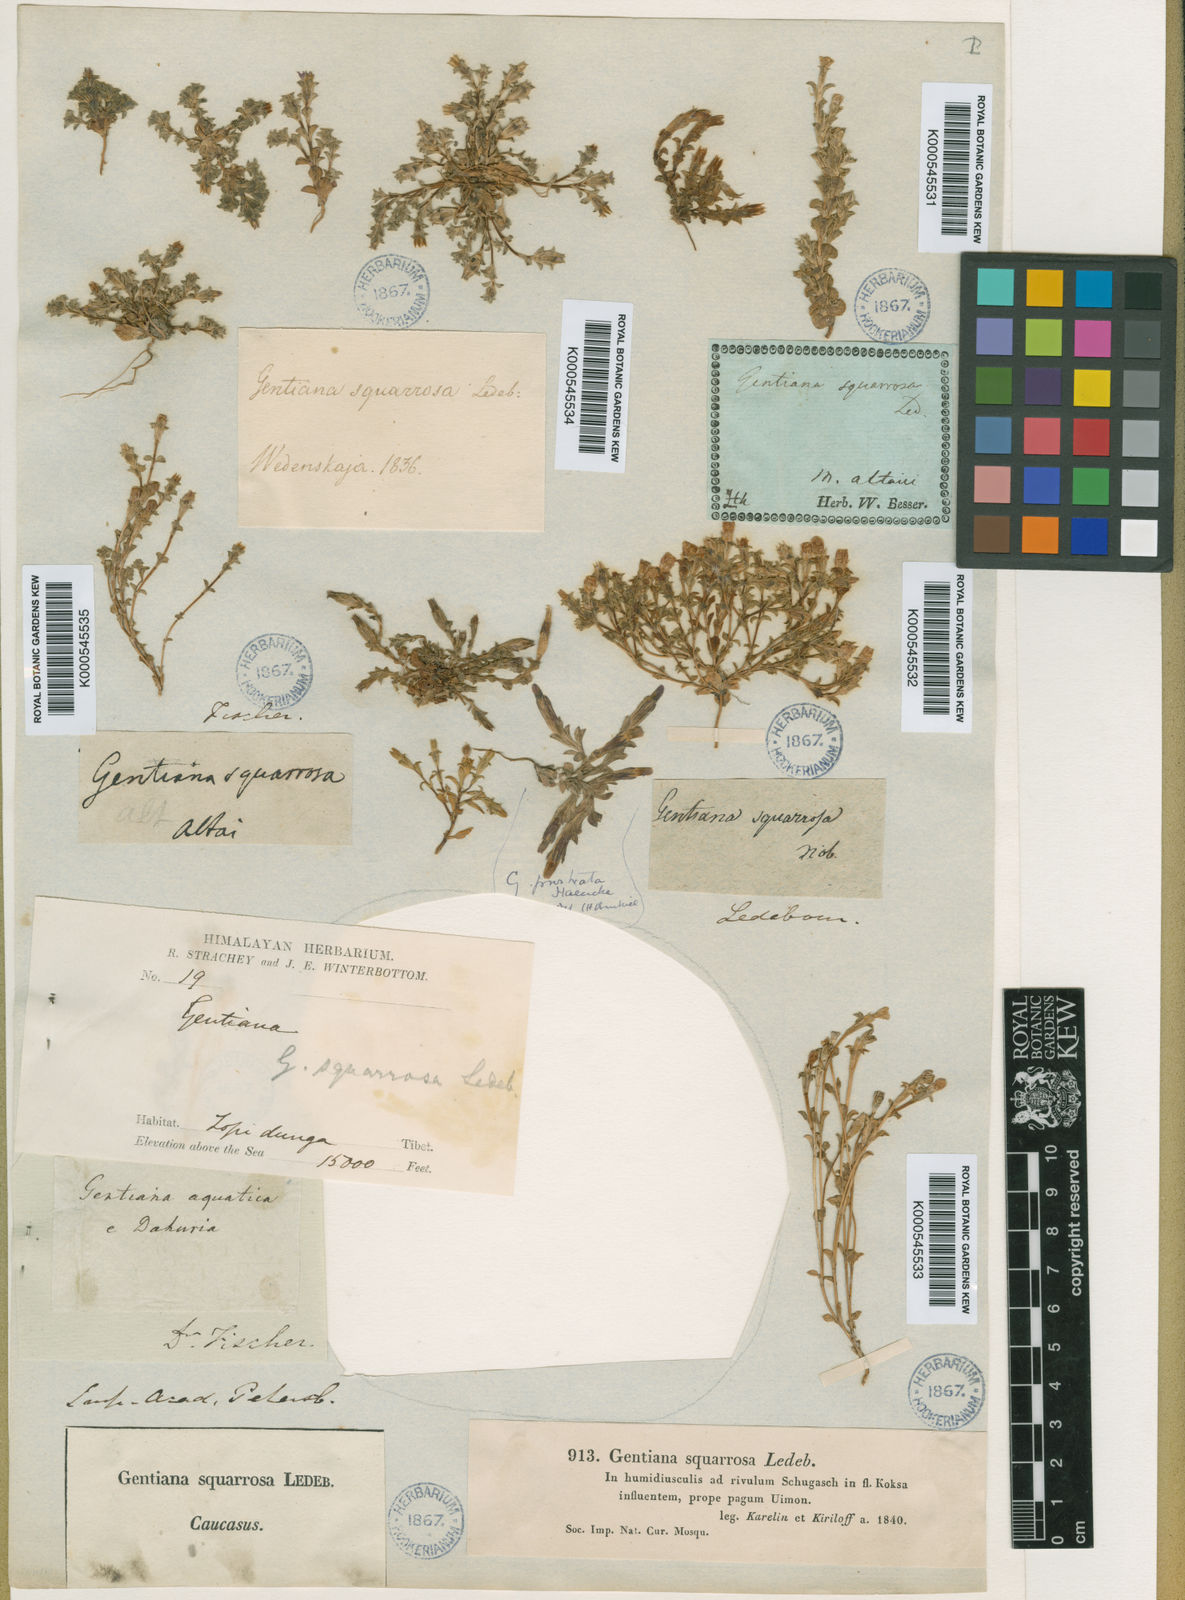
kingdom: Plantae
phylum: Tracheophyta
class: Magnoliopsida
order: Gentianales
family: Gentianaceae
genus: Gentiana
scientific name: Gentiana squarrosa
